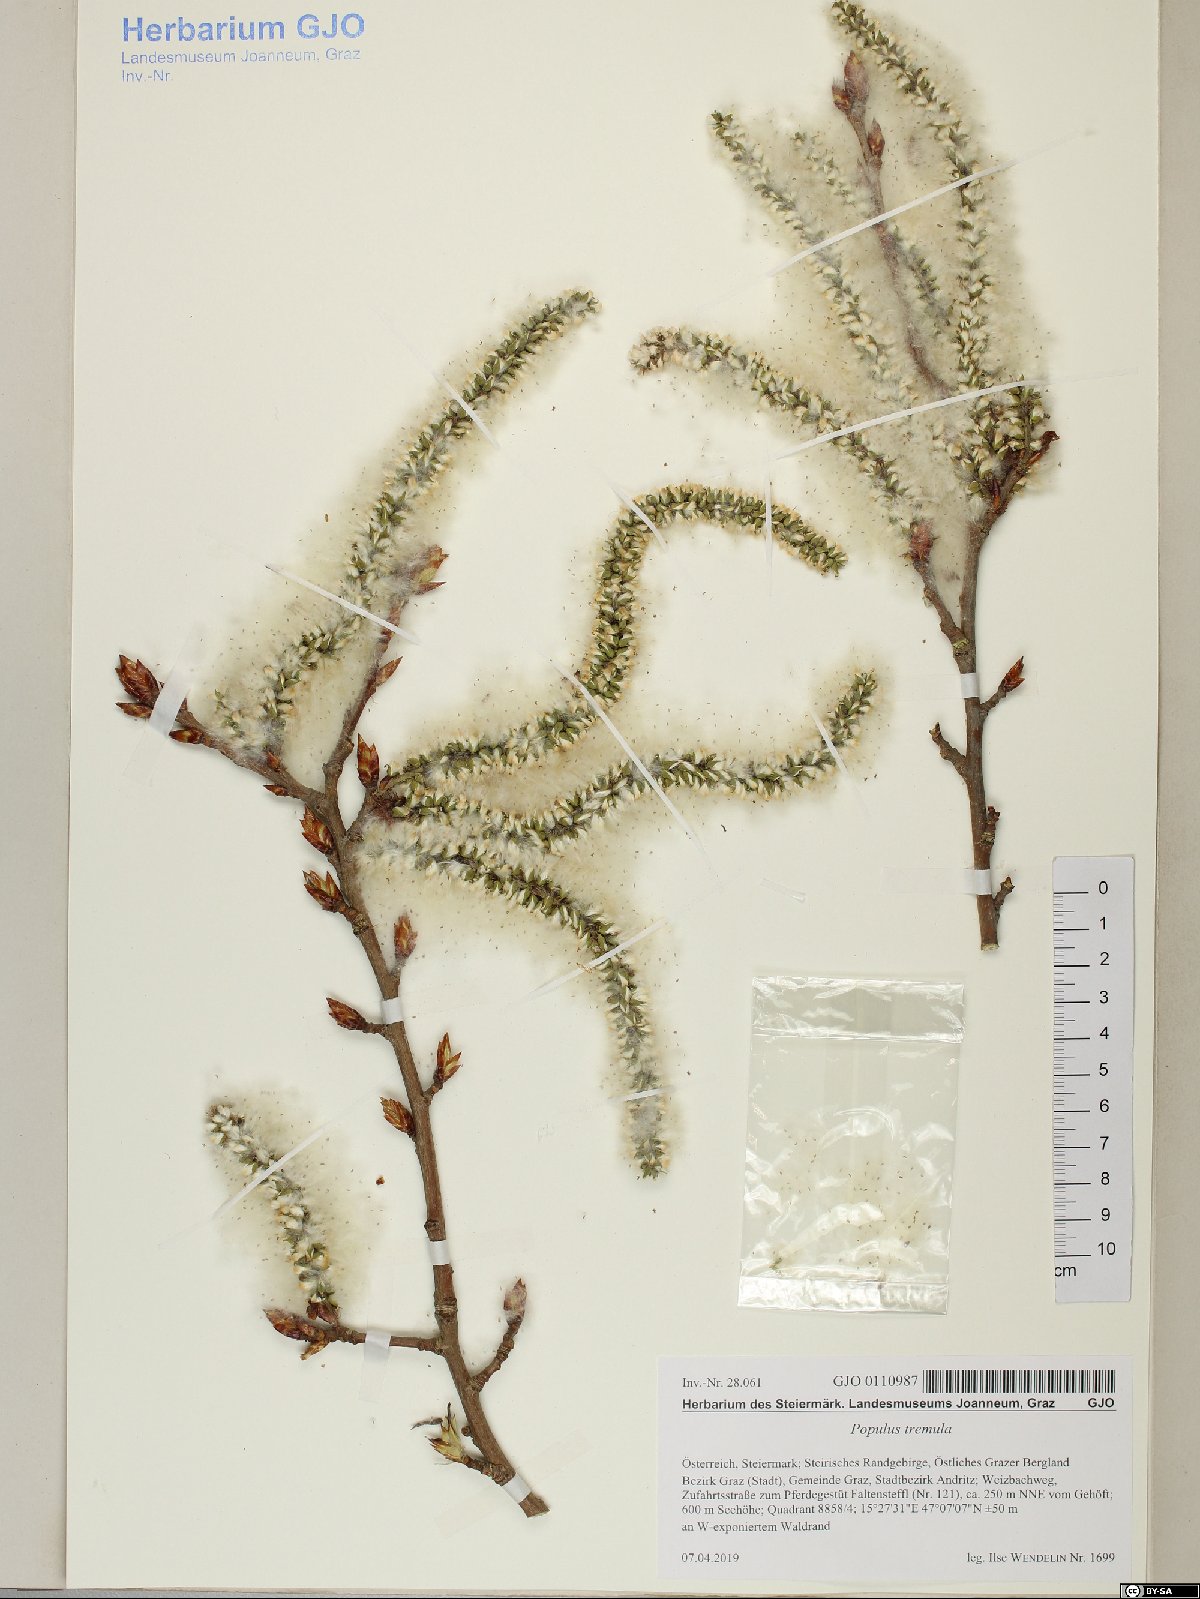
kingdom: Plantae
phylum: Tracheophyta
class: Magnoliopsida
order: Malpighiales
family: Salicaceae
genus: Populus
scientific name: Populus tremula
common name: European aspen
